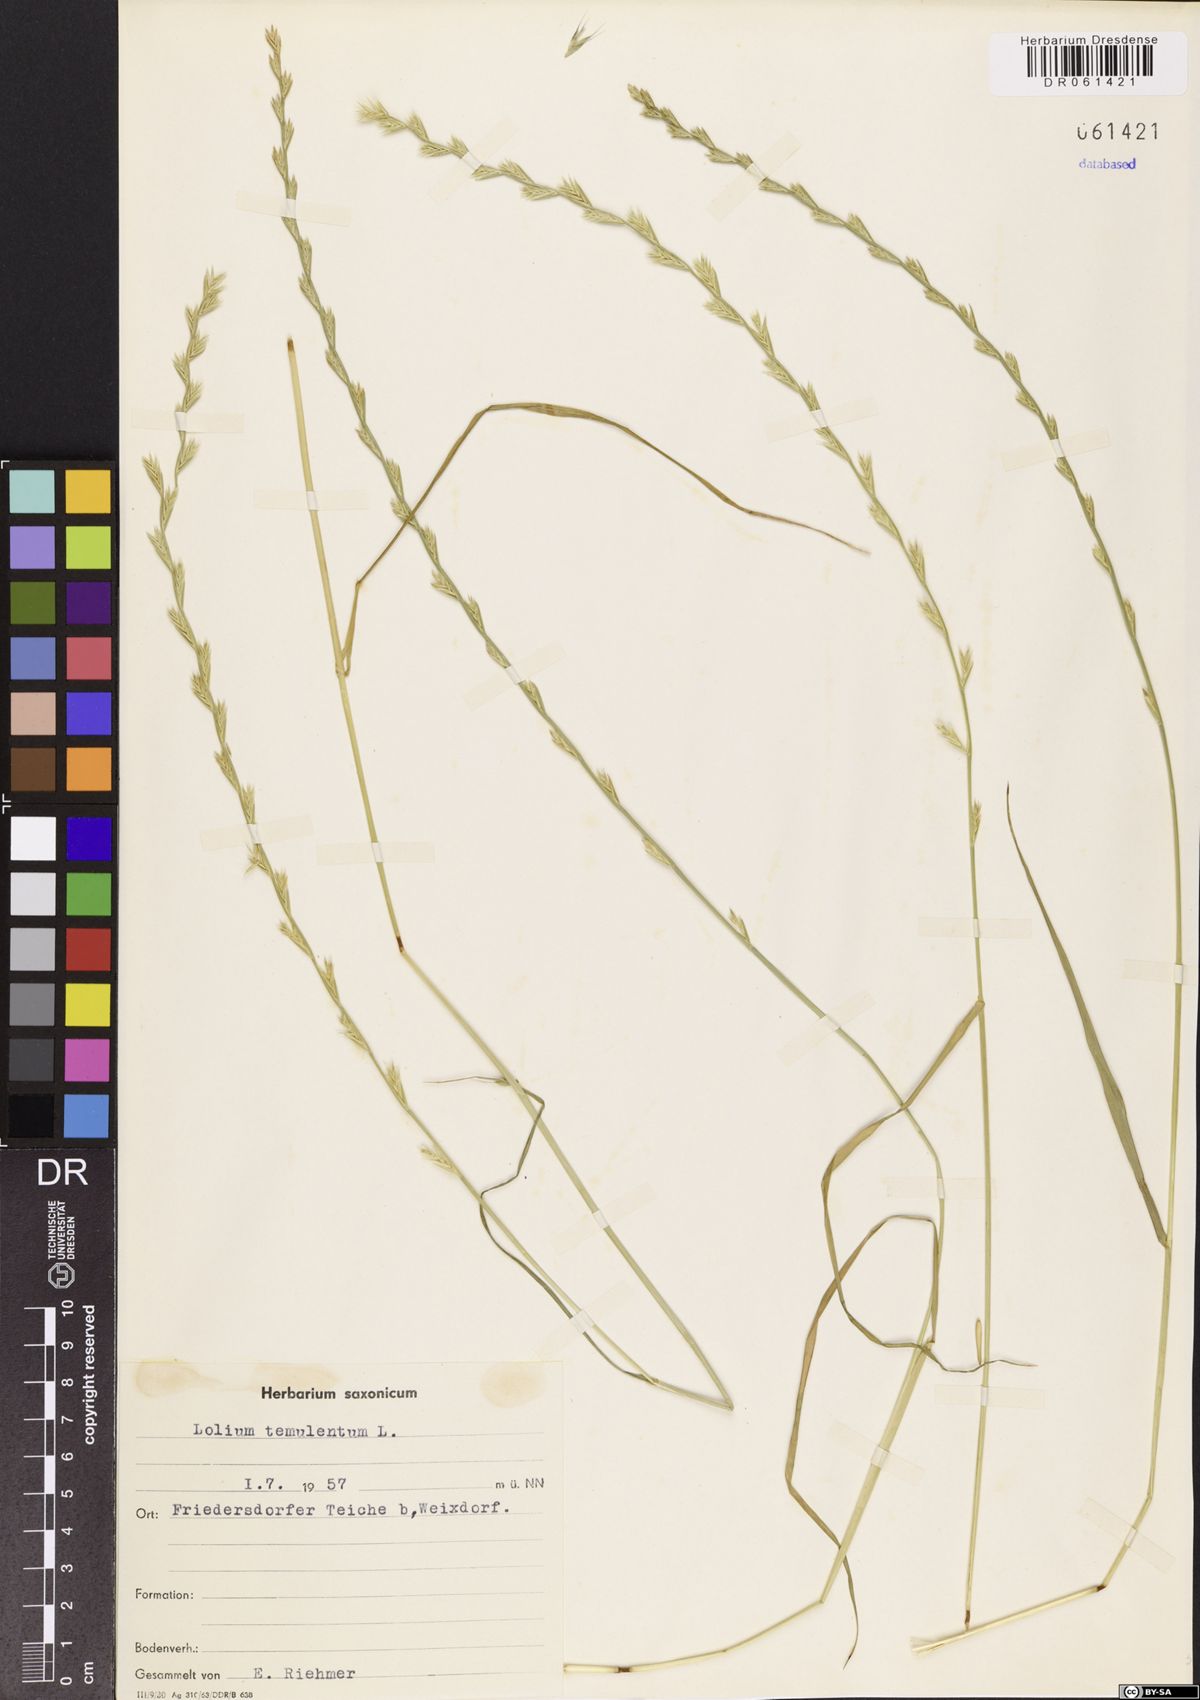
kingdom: Plantae
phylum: Tracheophyta
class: Liliopsida
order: Poales
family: Poaceae
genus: Lolium
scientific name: Lolium temulentum
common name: Darnel
